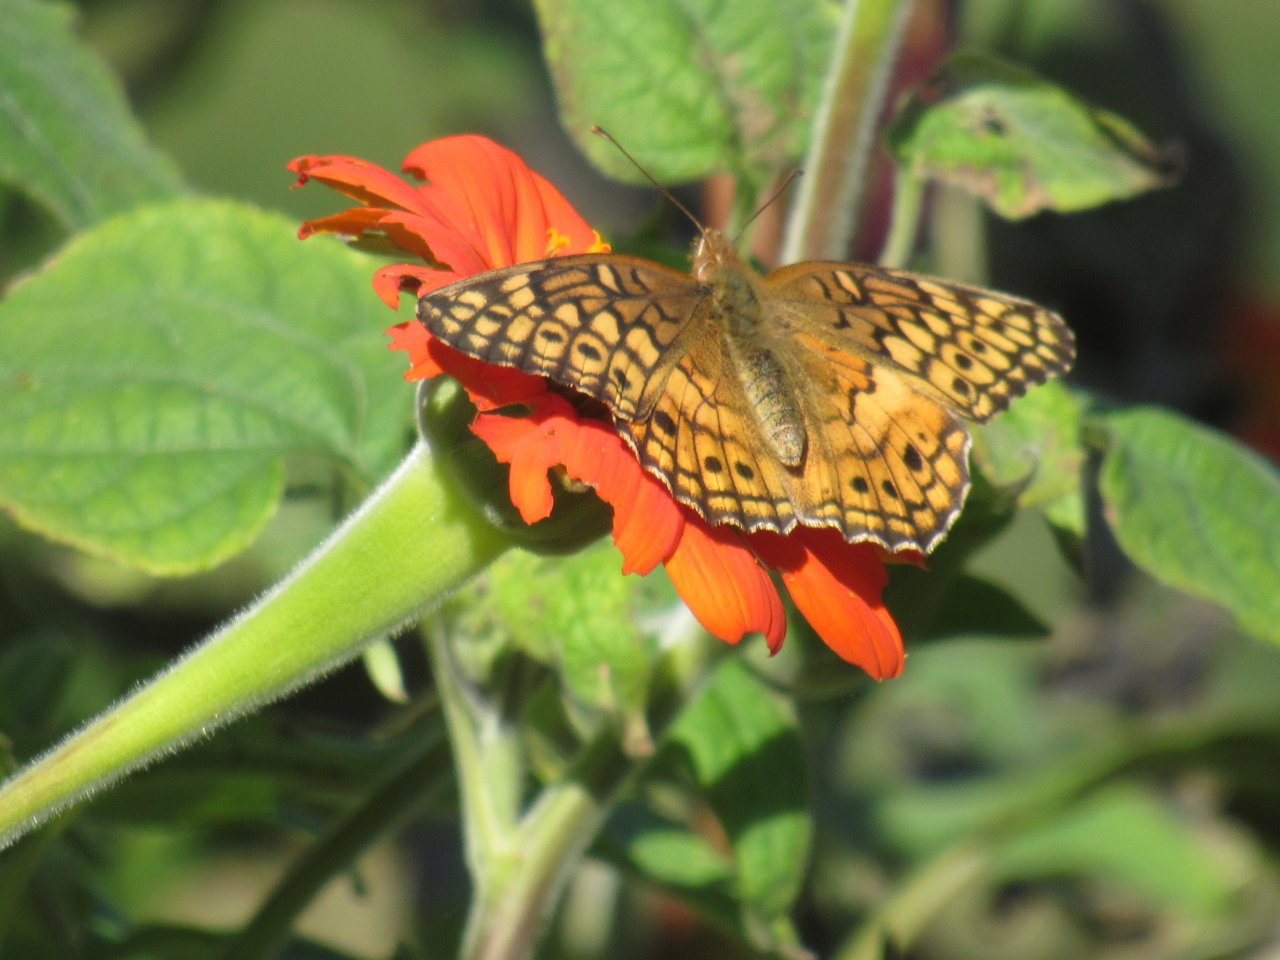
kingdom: Animalia
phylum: Arthropoda
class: Insecta
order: Lepidoptera
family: Nymphalidae
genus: Euptoieta
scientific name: Euptoieta claudia
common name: Variegated Fritillary
